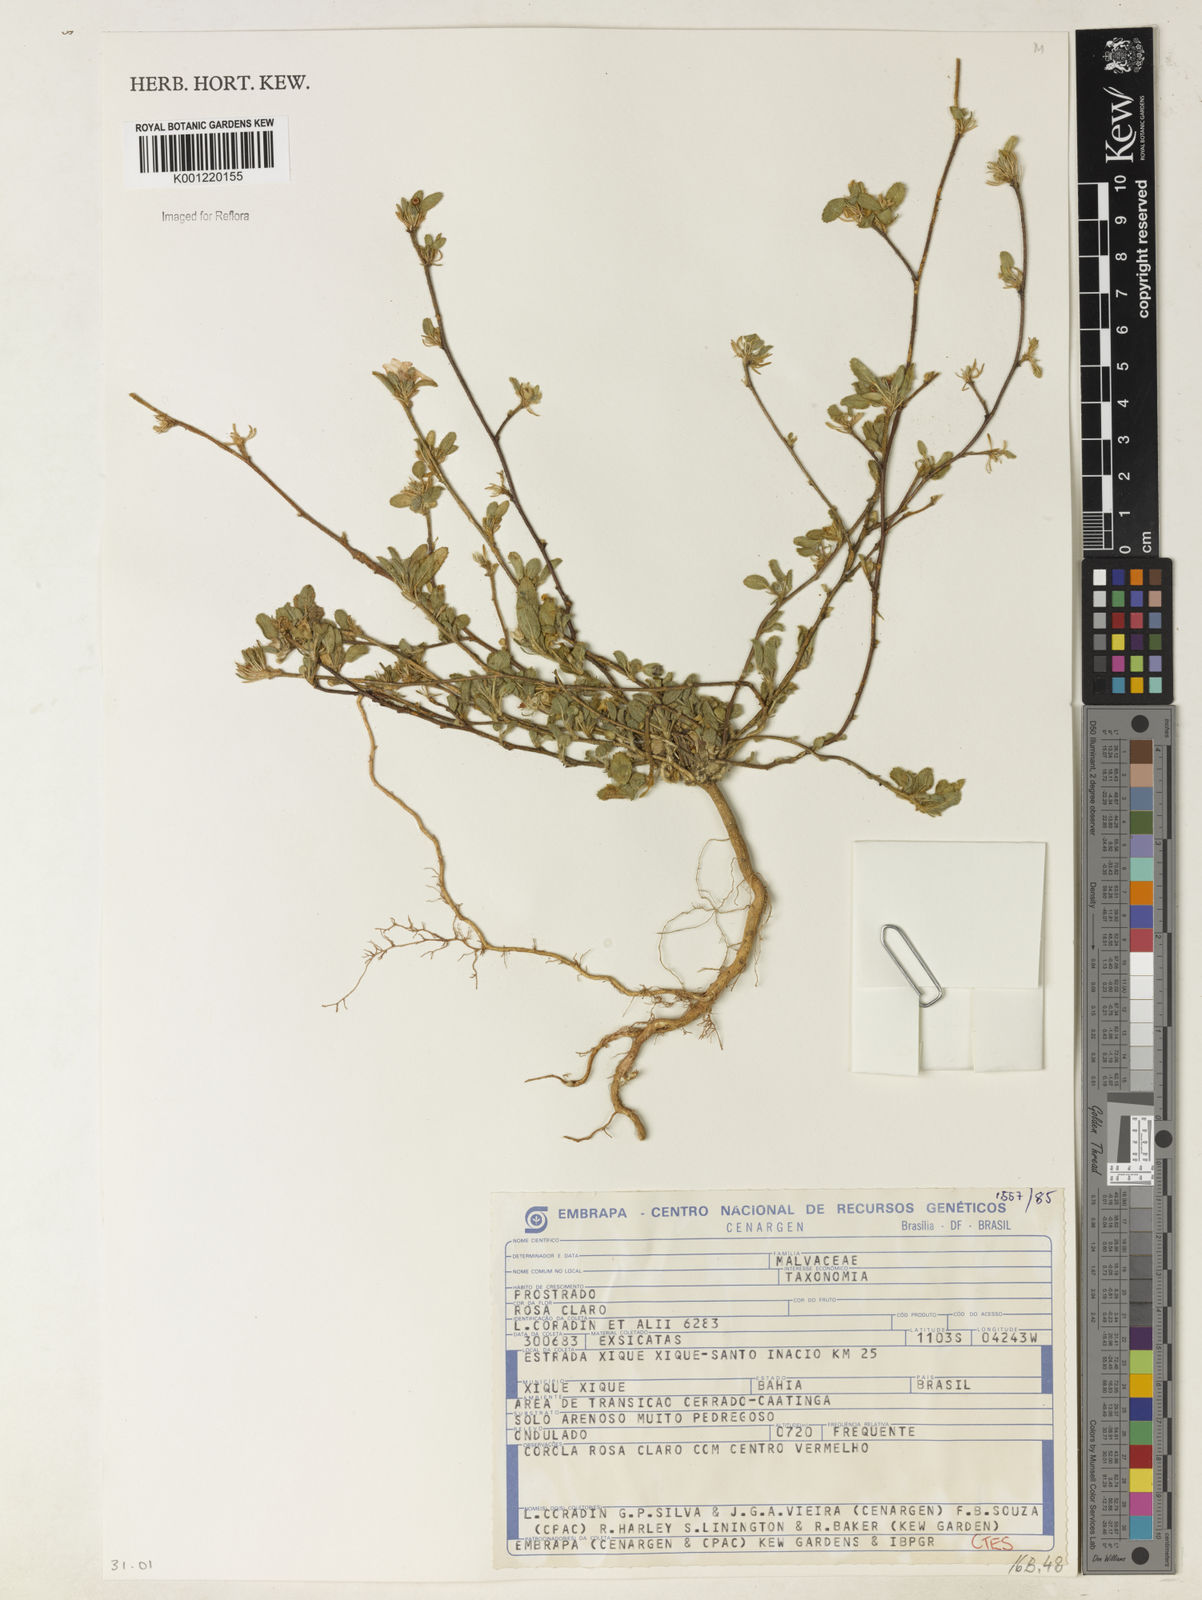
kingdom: Plantae
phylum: Tracheophyta
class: Magnoliopsida
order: Malvales
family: Malvaceae
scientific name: Malvaceae
